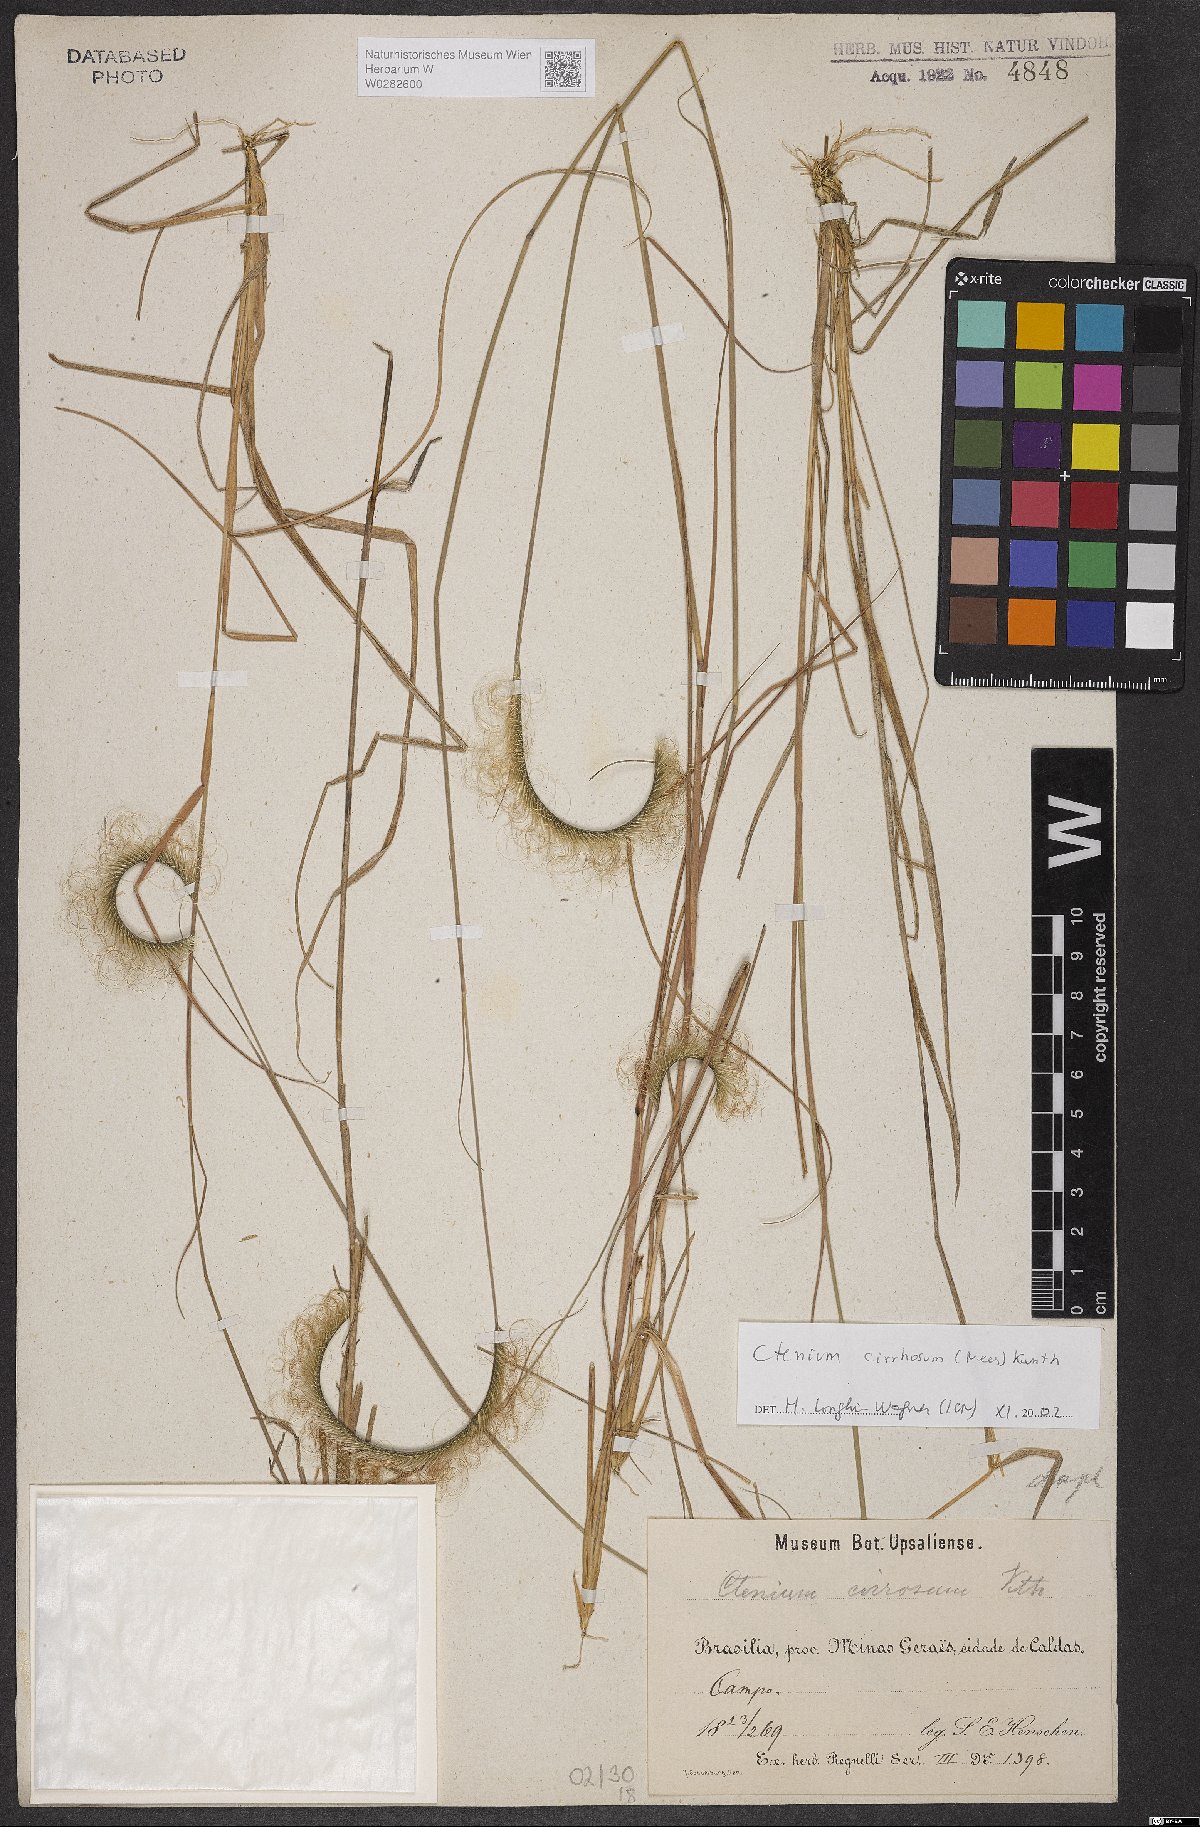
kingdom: Plantae
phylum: Tracheophyta
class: Liliopsida
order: Poales
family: Poaceae
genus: Ctenium
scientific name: Ctenium cirrhosum
